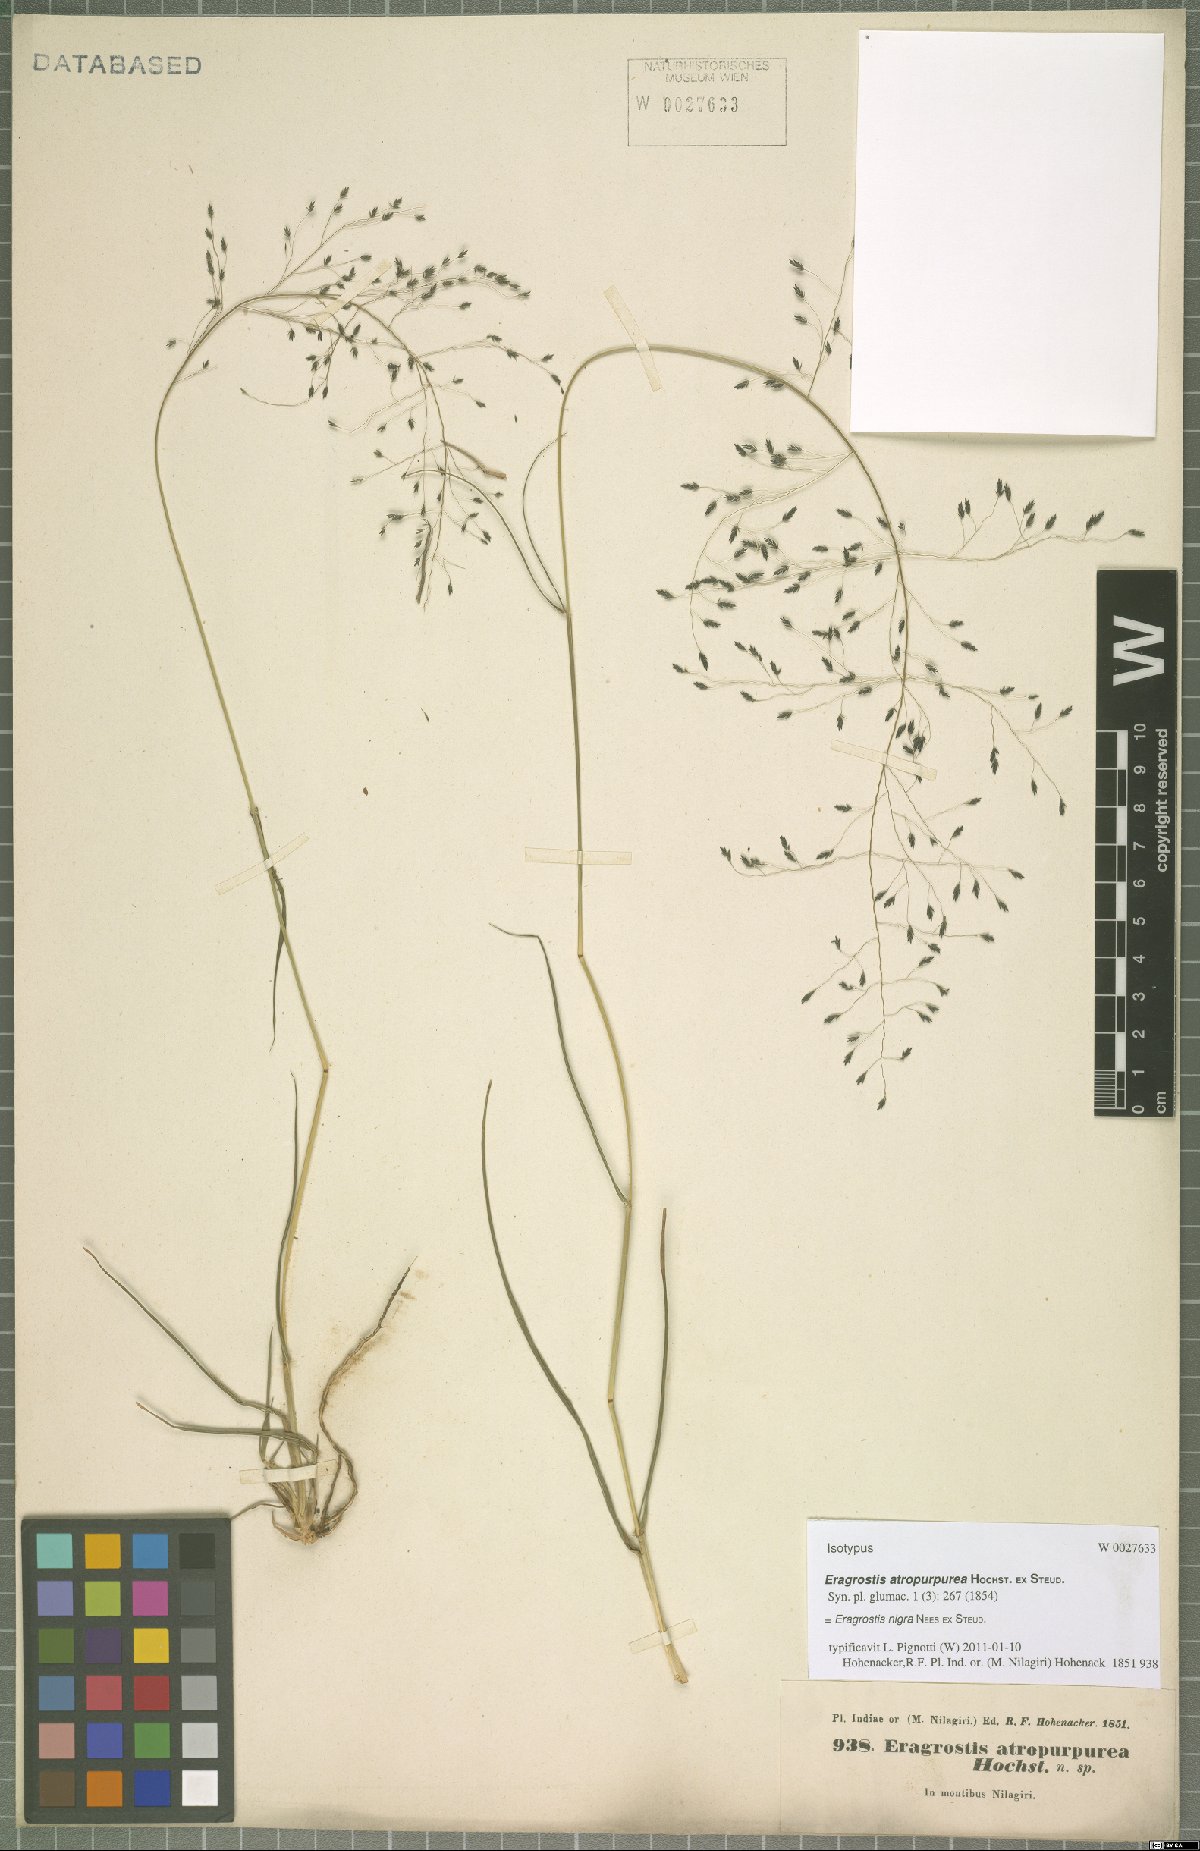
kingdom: Plantae
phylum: Tracheophyta
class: Liliopsida
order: Poales
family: Poaceae
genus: Eragrostis
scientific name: Eragrostis nigra
